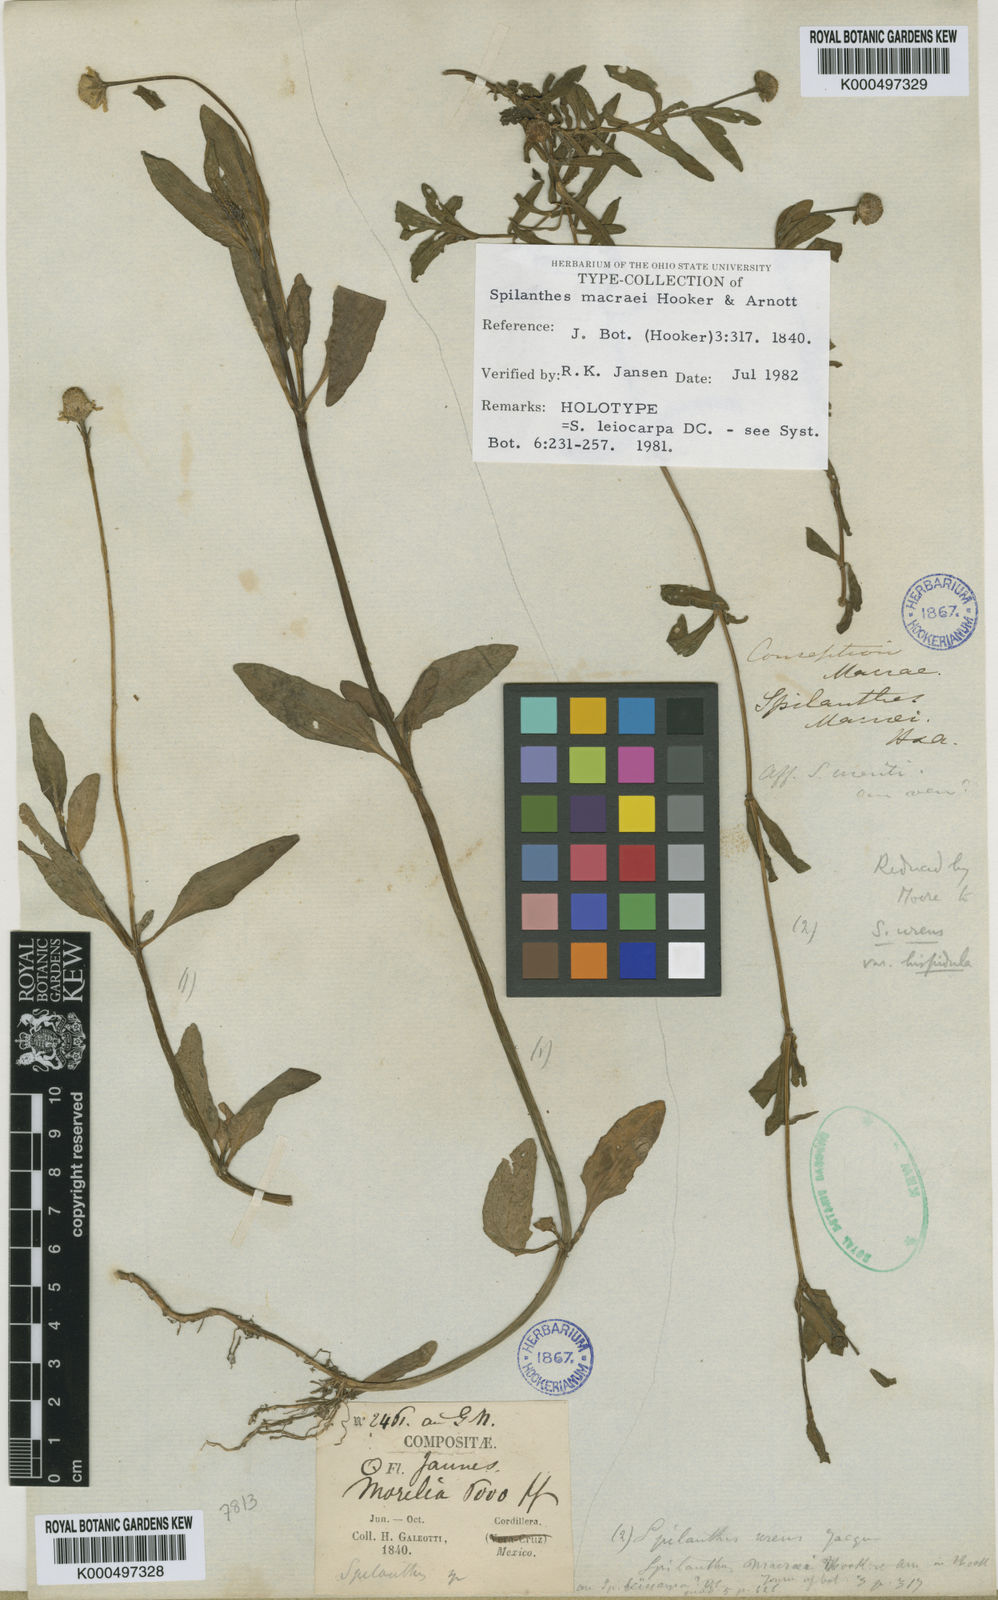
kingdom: Plantae
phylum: Tracheophyta
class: Magnoliopsida
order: Asterales
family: Asteraceae
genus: Spilanthes
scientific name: Spilanthes leiocarpa
